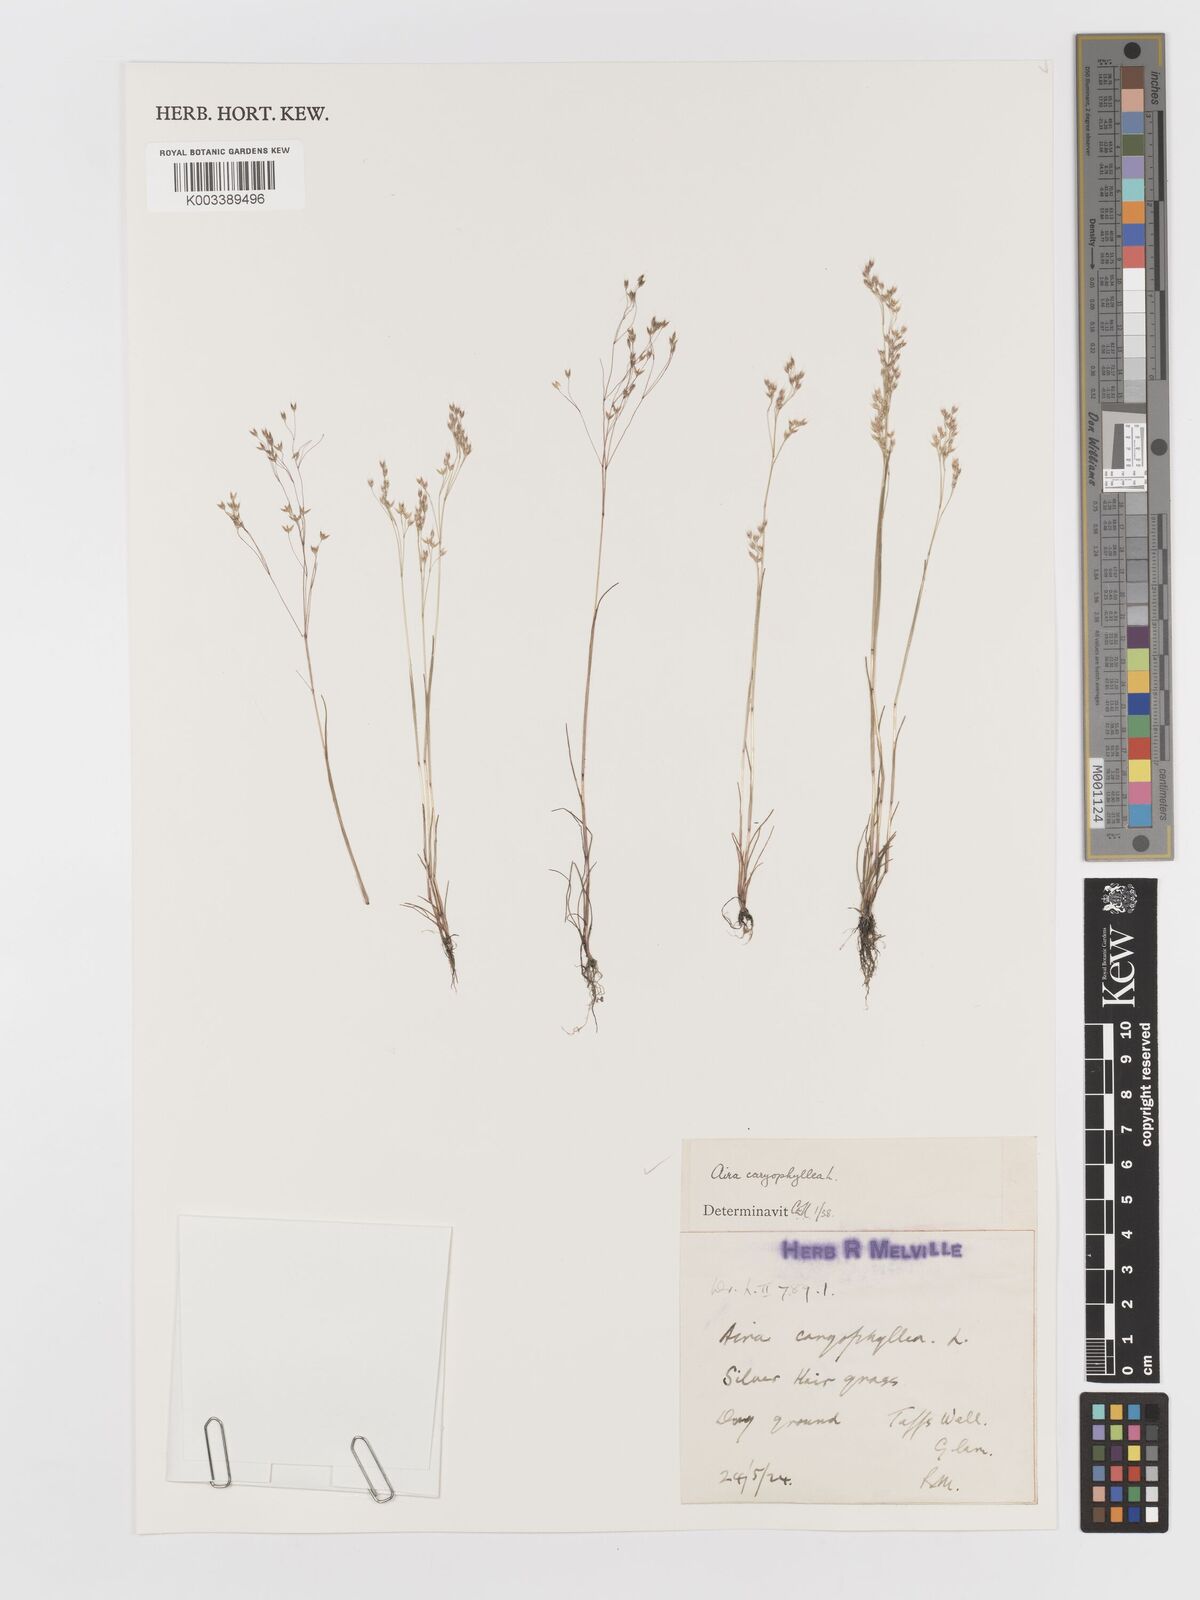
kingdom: Plantae
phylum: Tracheophyta
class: Liliopsida
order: Poales
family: Poaceae
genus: Aira
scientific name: Aira caryophyllea
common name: Silver hairgrass
